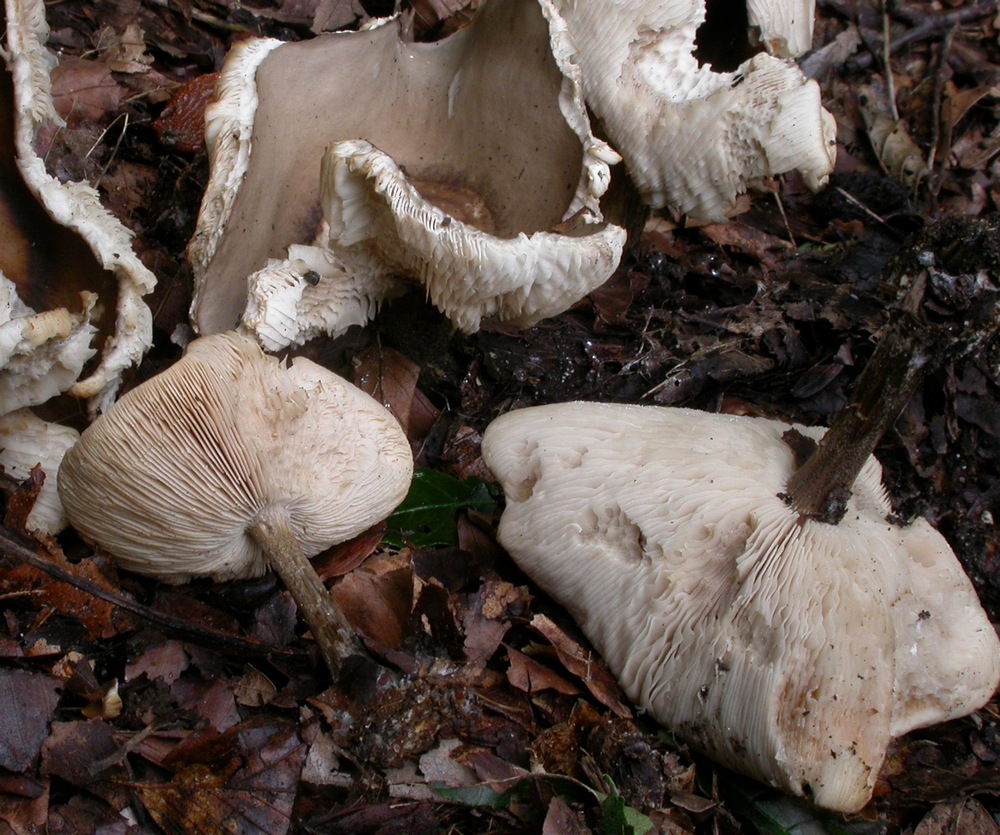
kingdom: Fungi
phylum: Basidiomycota
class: Agaricomycetes
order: Agaricales
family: Tricholomataceae
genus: Melanoleuca
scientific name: Melanoleuca polioleuca
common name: almindelig munkehat
